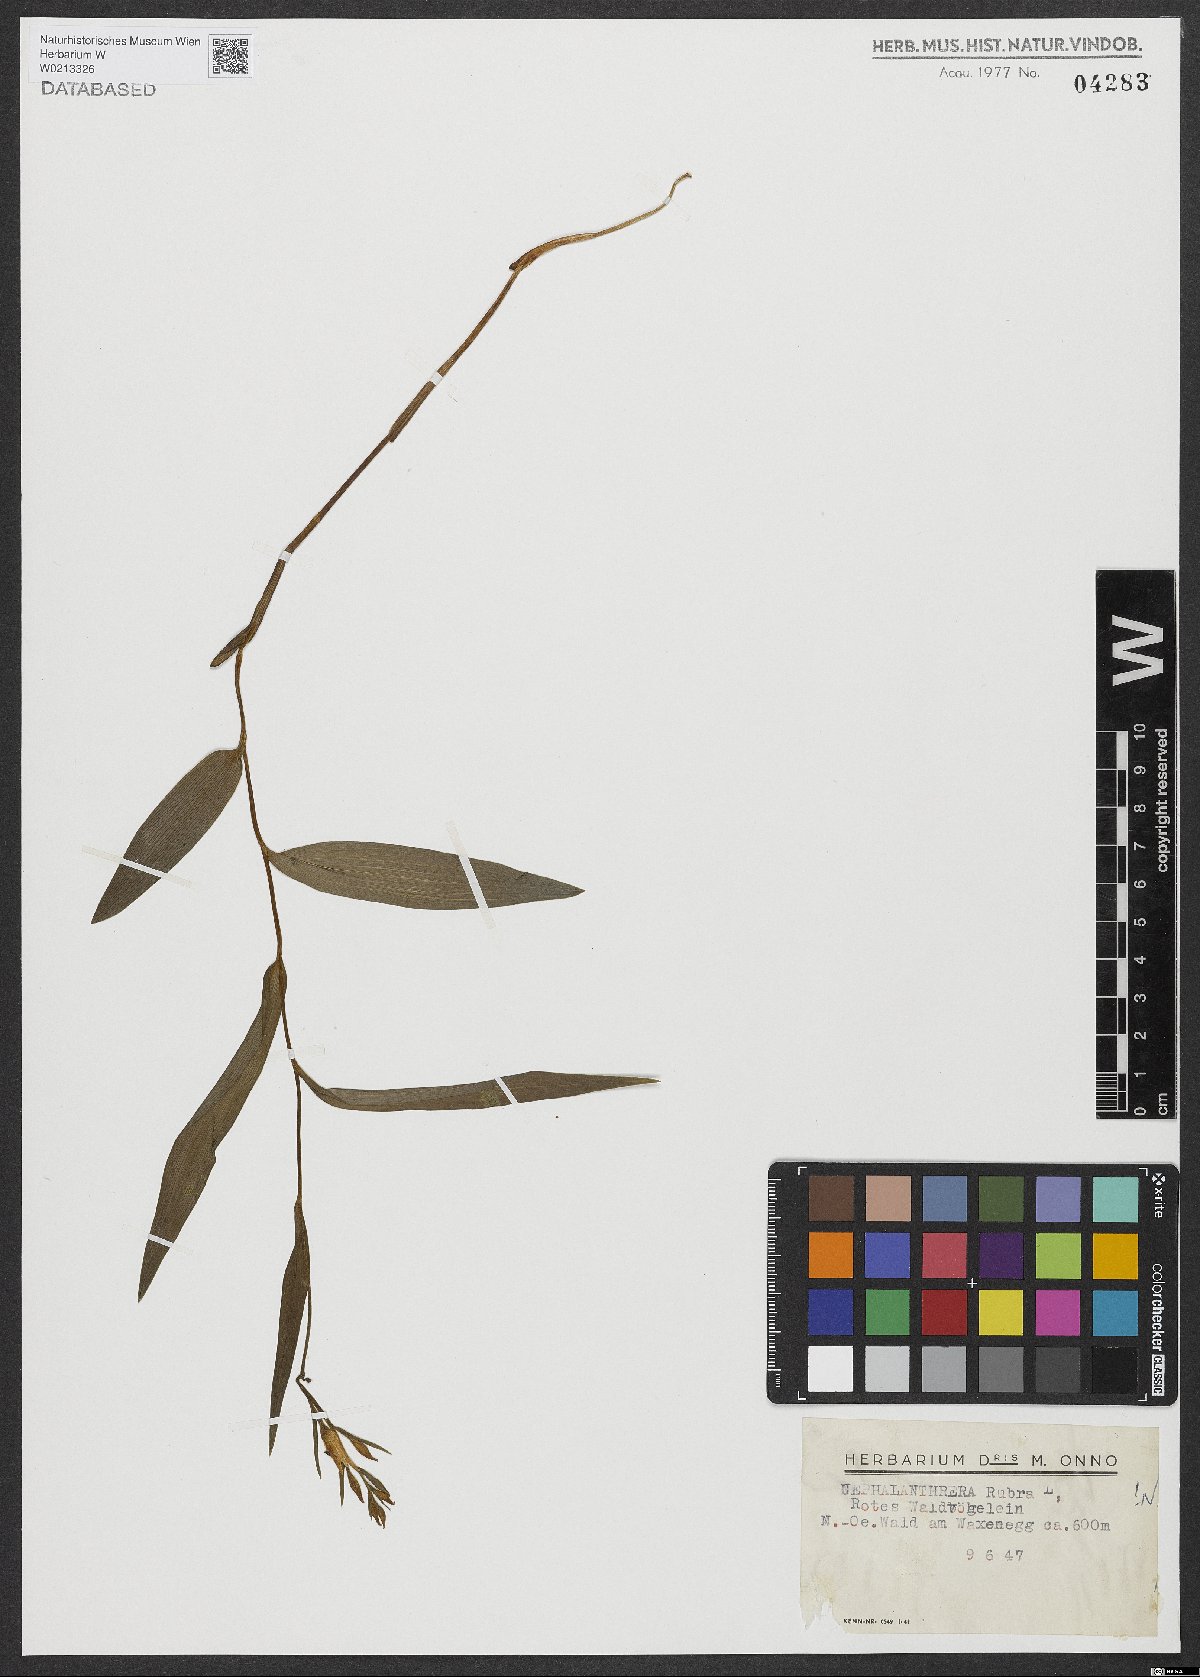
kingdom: Plantae
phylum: Tracheophyta
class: Liliopsida
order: Asparagales
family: Orchidaceae
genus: Cephalanthera
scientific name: Cephalanthera rubra
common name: Red helleborine
